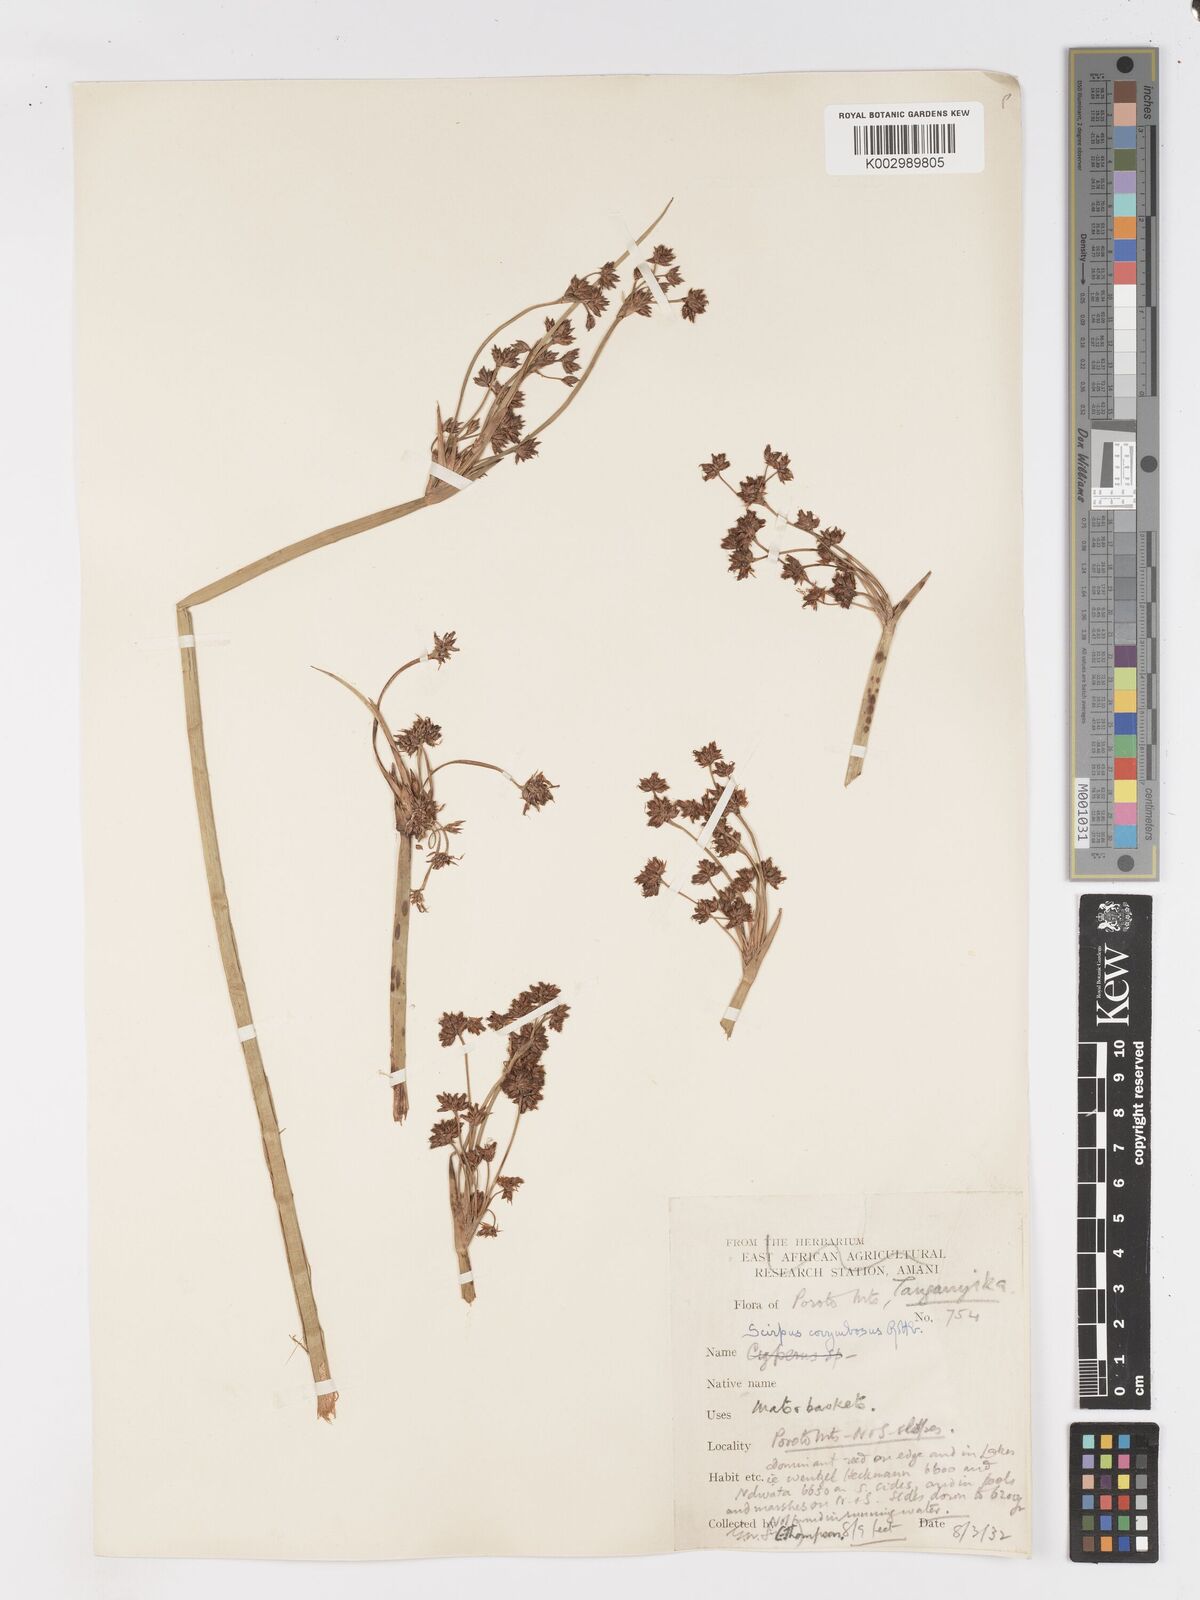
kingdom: Plantae
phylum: Tracheophyta
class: Liliopsida
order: Poales
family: Cyperaceae
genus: Schoenoplectiella
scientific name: Schoenoplectiella brachyceras
